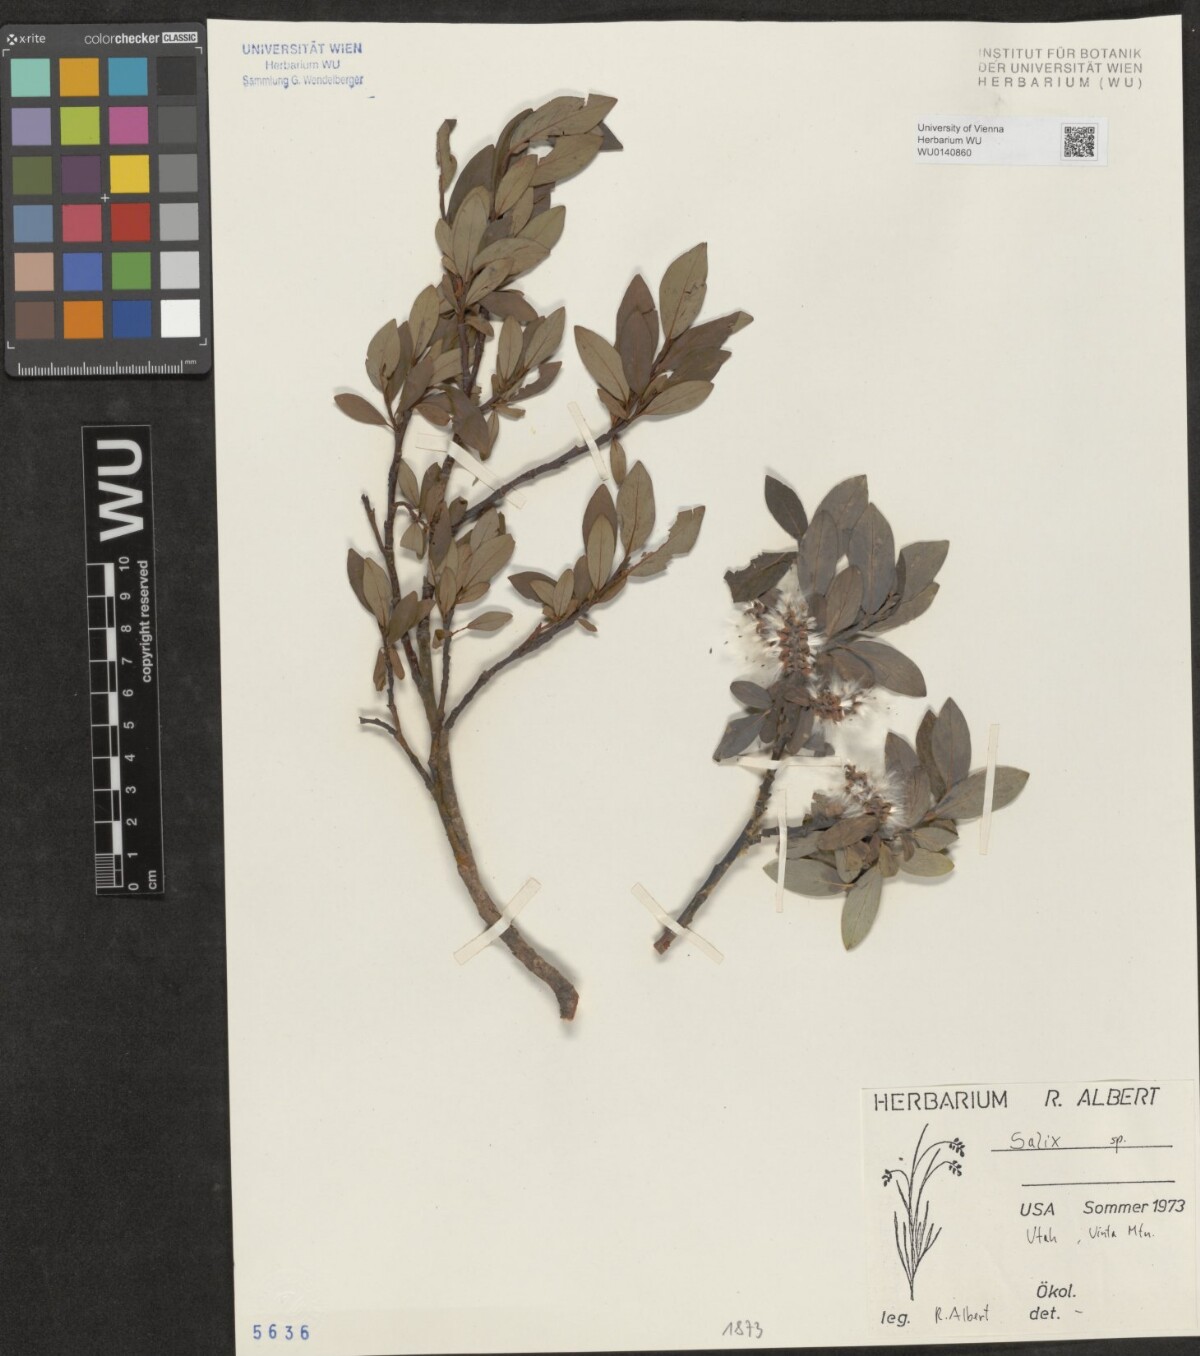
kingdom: Plantae
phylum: Tracheophyta
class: Magnoliopsida
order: Malpighiales
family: Salicaceae
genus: Salix
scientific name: Salix
